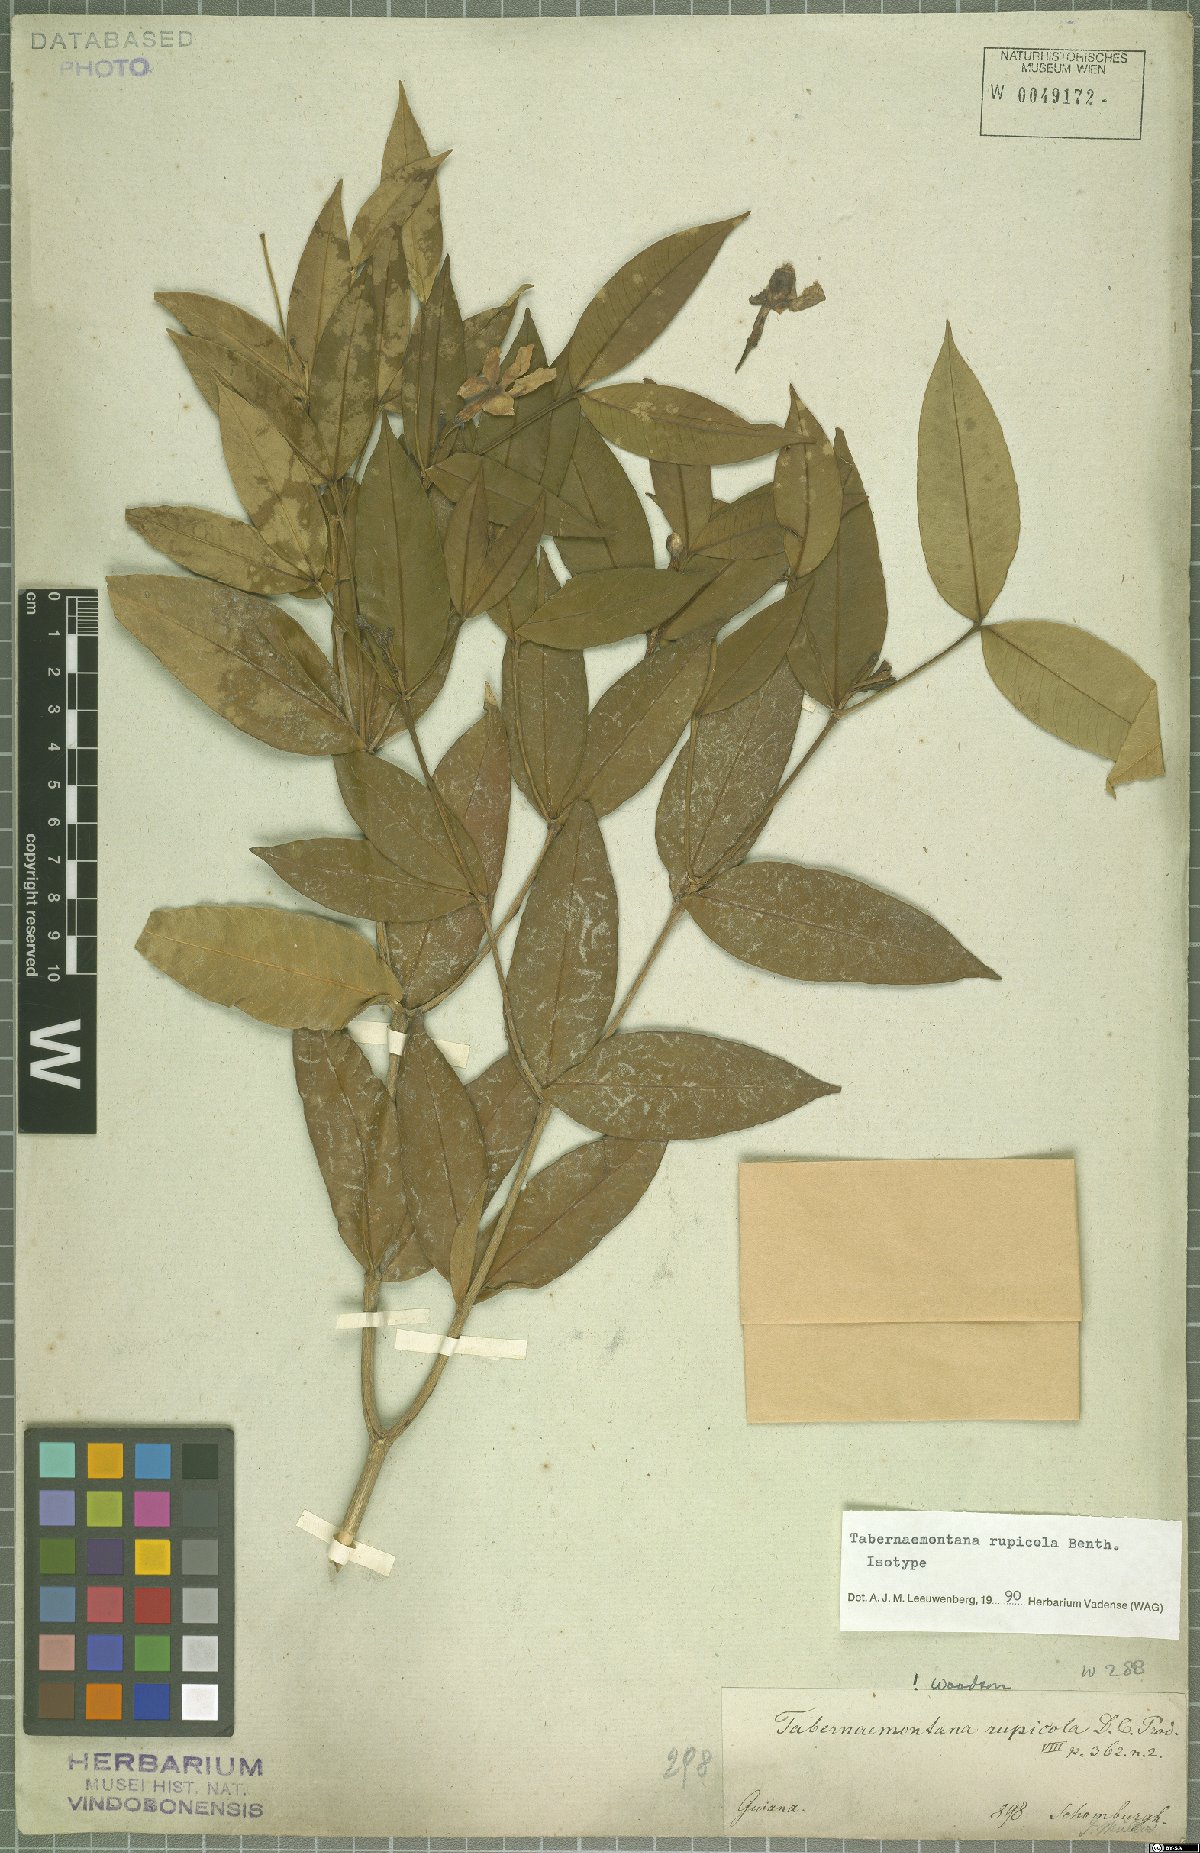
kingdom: Plantae
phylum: Tracheophyta
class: Magnoliopsida
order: Gentianales
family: Apocynaceae
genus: Tabernaemontana
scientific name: Tabernaemontana rupicola
